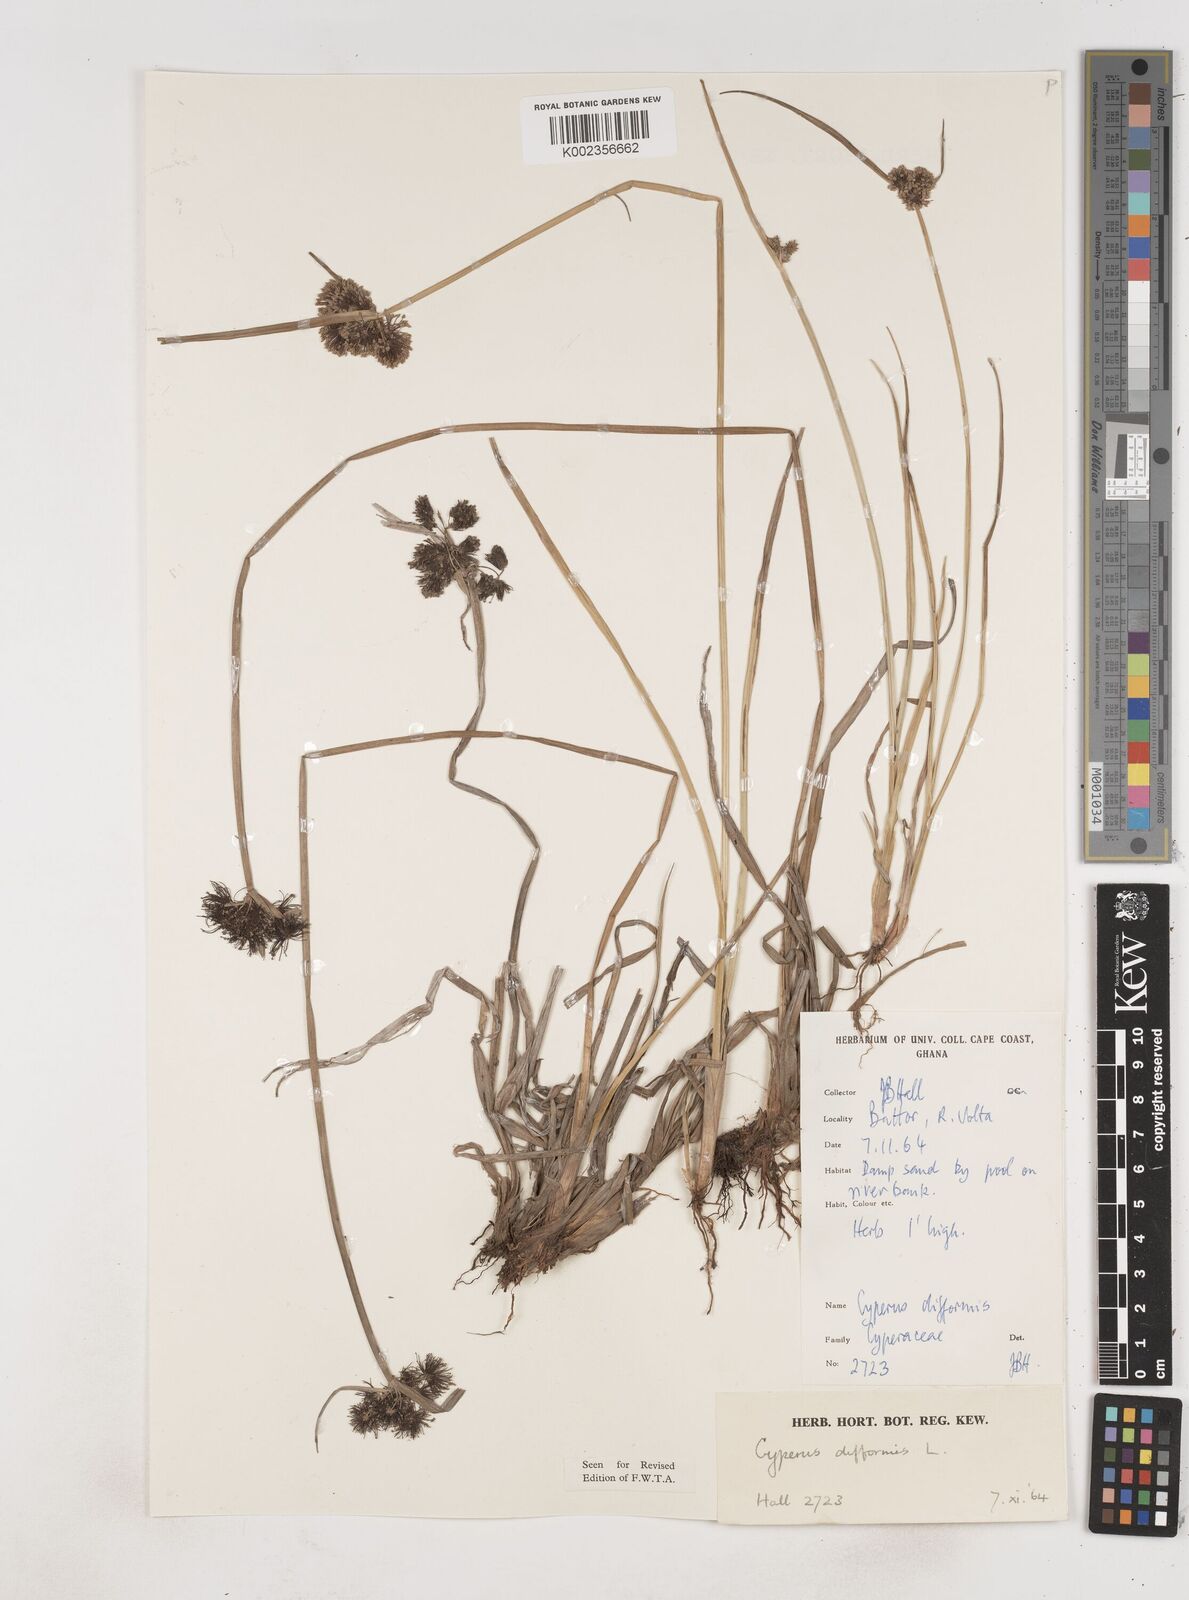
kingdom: Plantae
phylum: Tracheophyta
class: Liliopsida
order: Poales
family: Cyperaceae
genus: Cyperus
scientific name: Cyperus difformis
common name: Variable flatsedge
